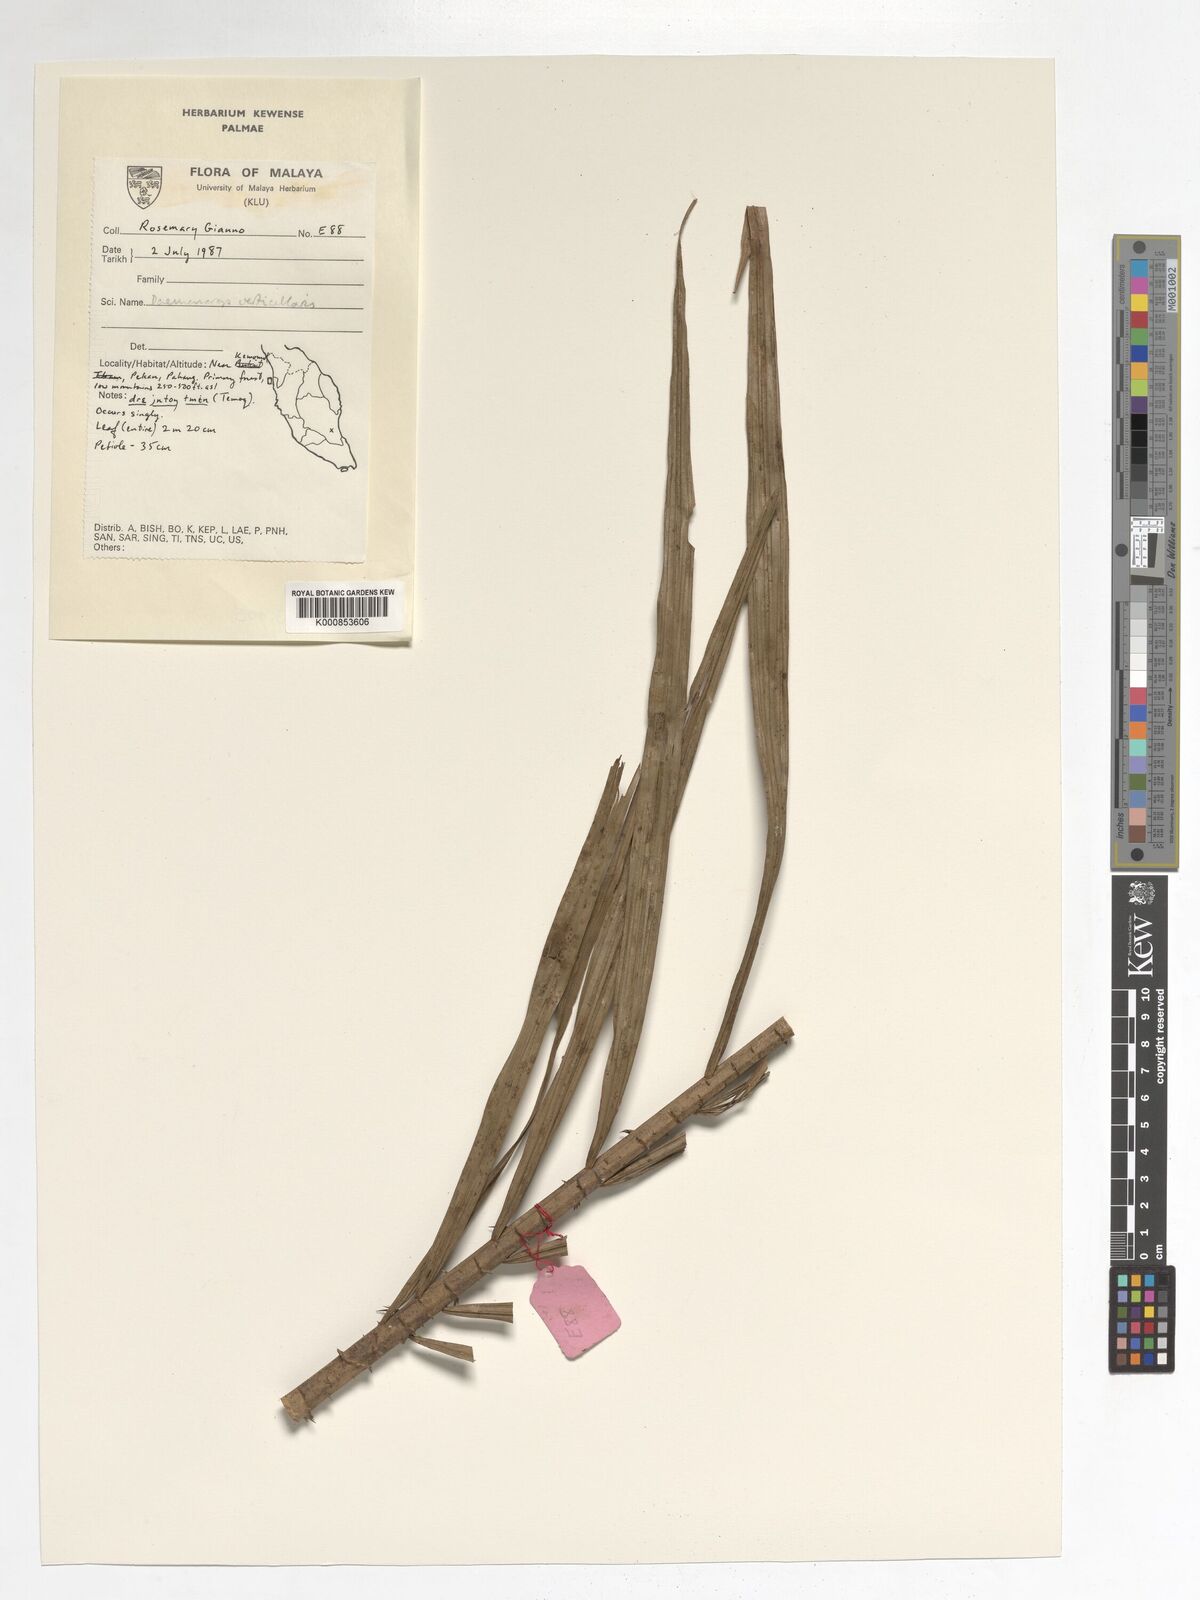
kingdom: Plantae
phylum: Tracheophyta
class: Liliopsida
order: Arecales
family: Arecaceae
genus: Calamus
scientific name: Calamus verticillaris
